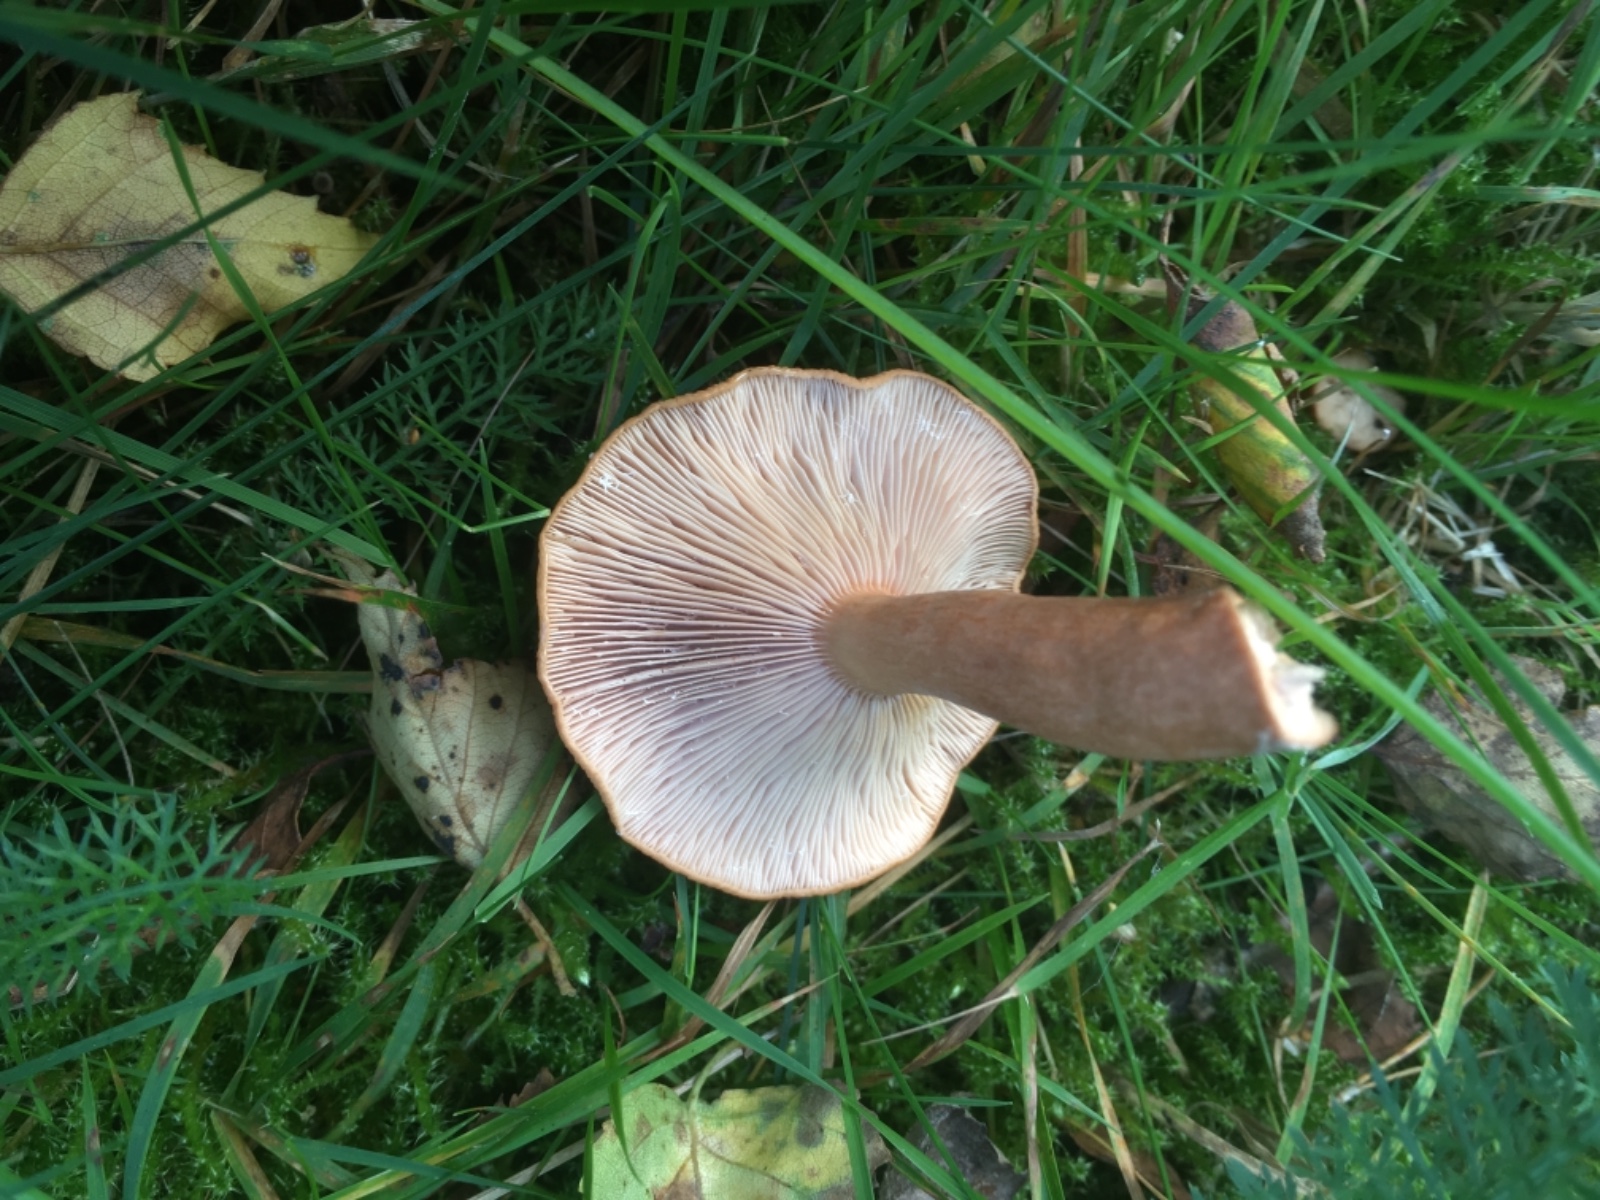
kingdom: Fungi
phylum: Basidiomycota
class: Agaricomycetes
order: Russulales
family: Russulaceae
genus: Lactarius
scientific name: Lactarius tabidus
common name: rynket mælkehat
